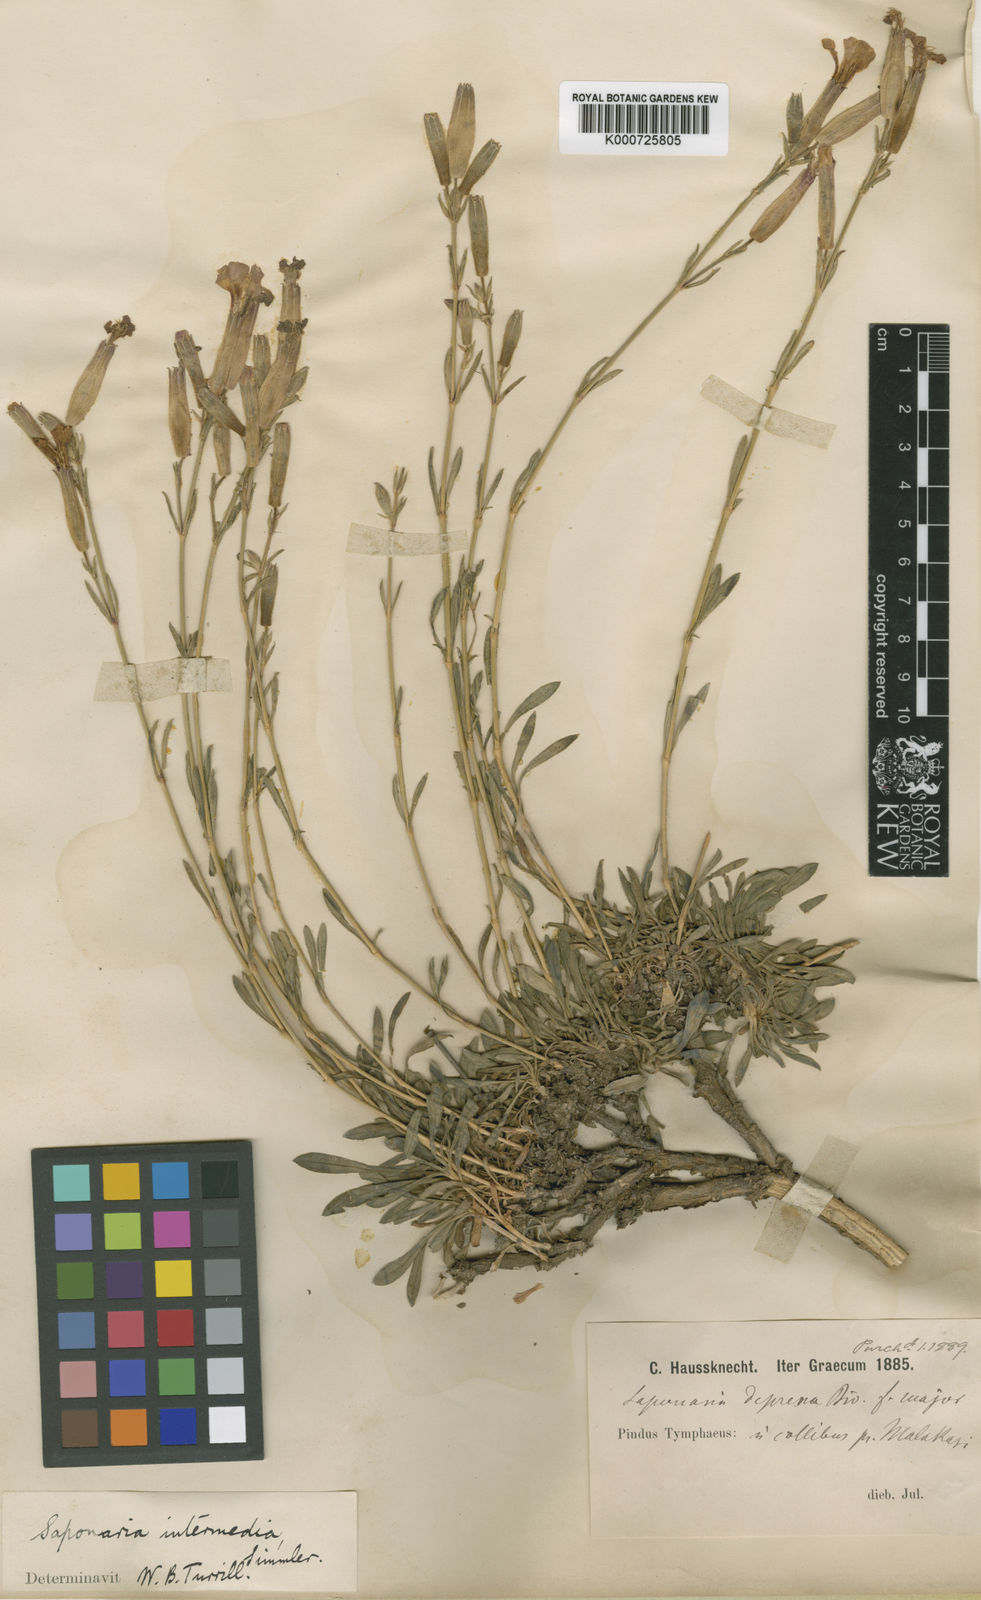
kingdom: Plantae
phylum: Tracheophyta
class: Magnoliopsida
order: Caryophyllales
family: Caryophyllaceae
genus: Saponaria
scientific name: Saponaria sicula
